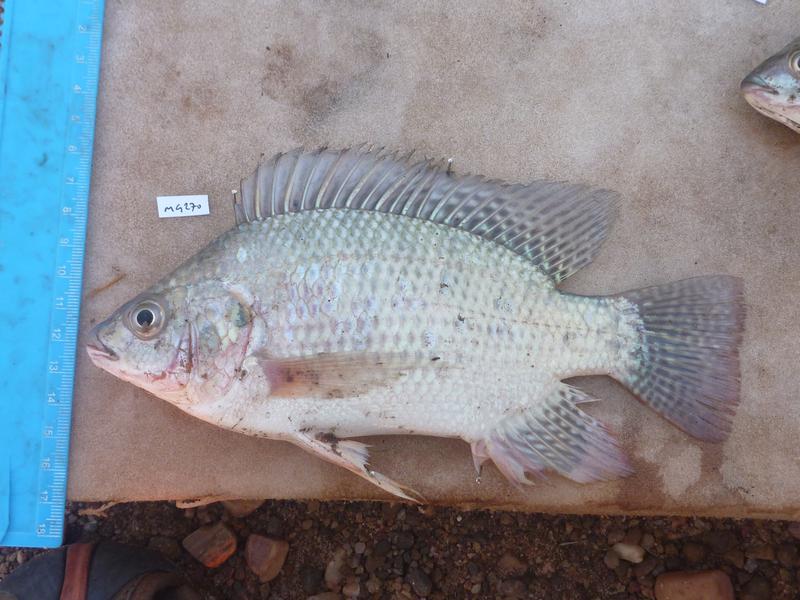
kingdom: Animalia
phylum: Chordata
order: Perciformes
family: Cichlidae
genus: Oreochromis
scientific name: Oreochromis niloticus
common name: Nile tilapia
